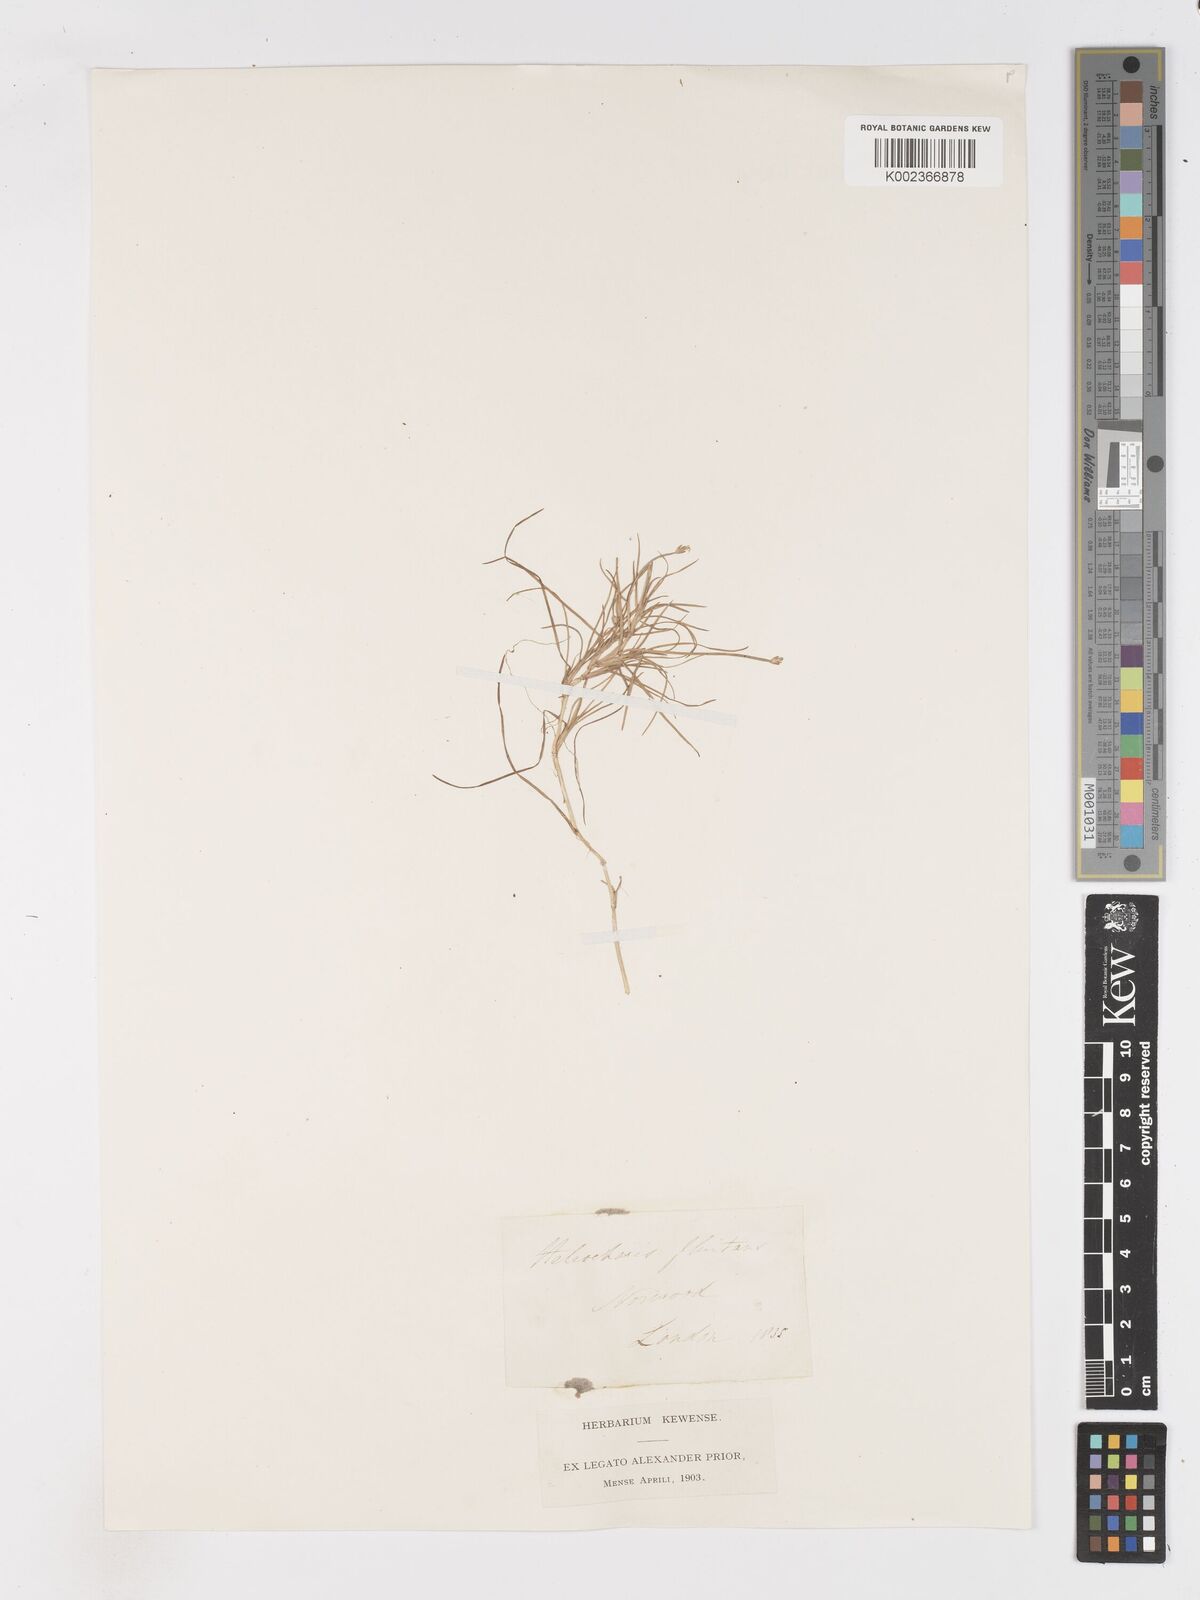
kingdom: Plantae
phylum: Tracheophyta
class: Liliopsida
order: Poales
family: Cyperaceae
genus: Isolepis
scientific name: Isolepis fluitans
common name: Floating club-rush
